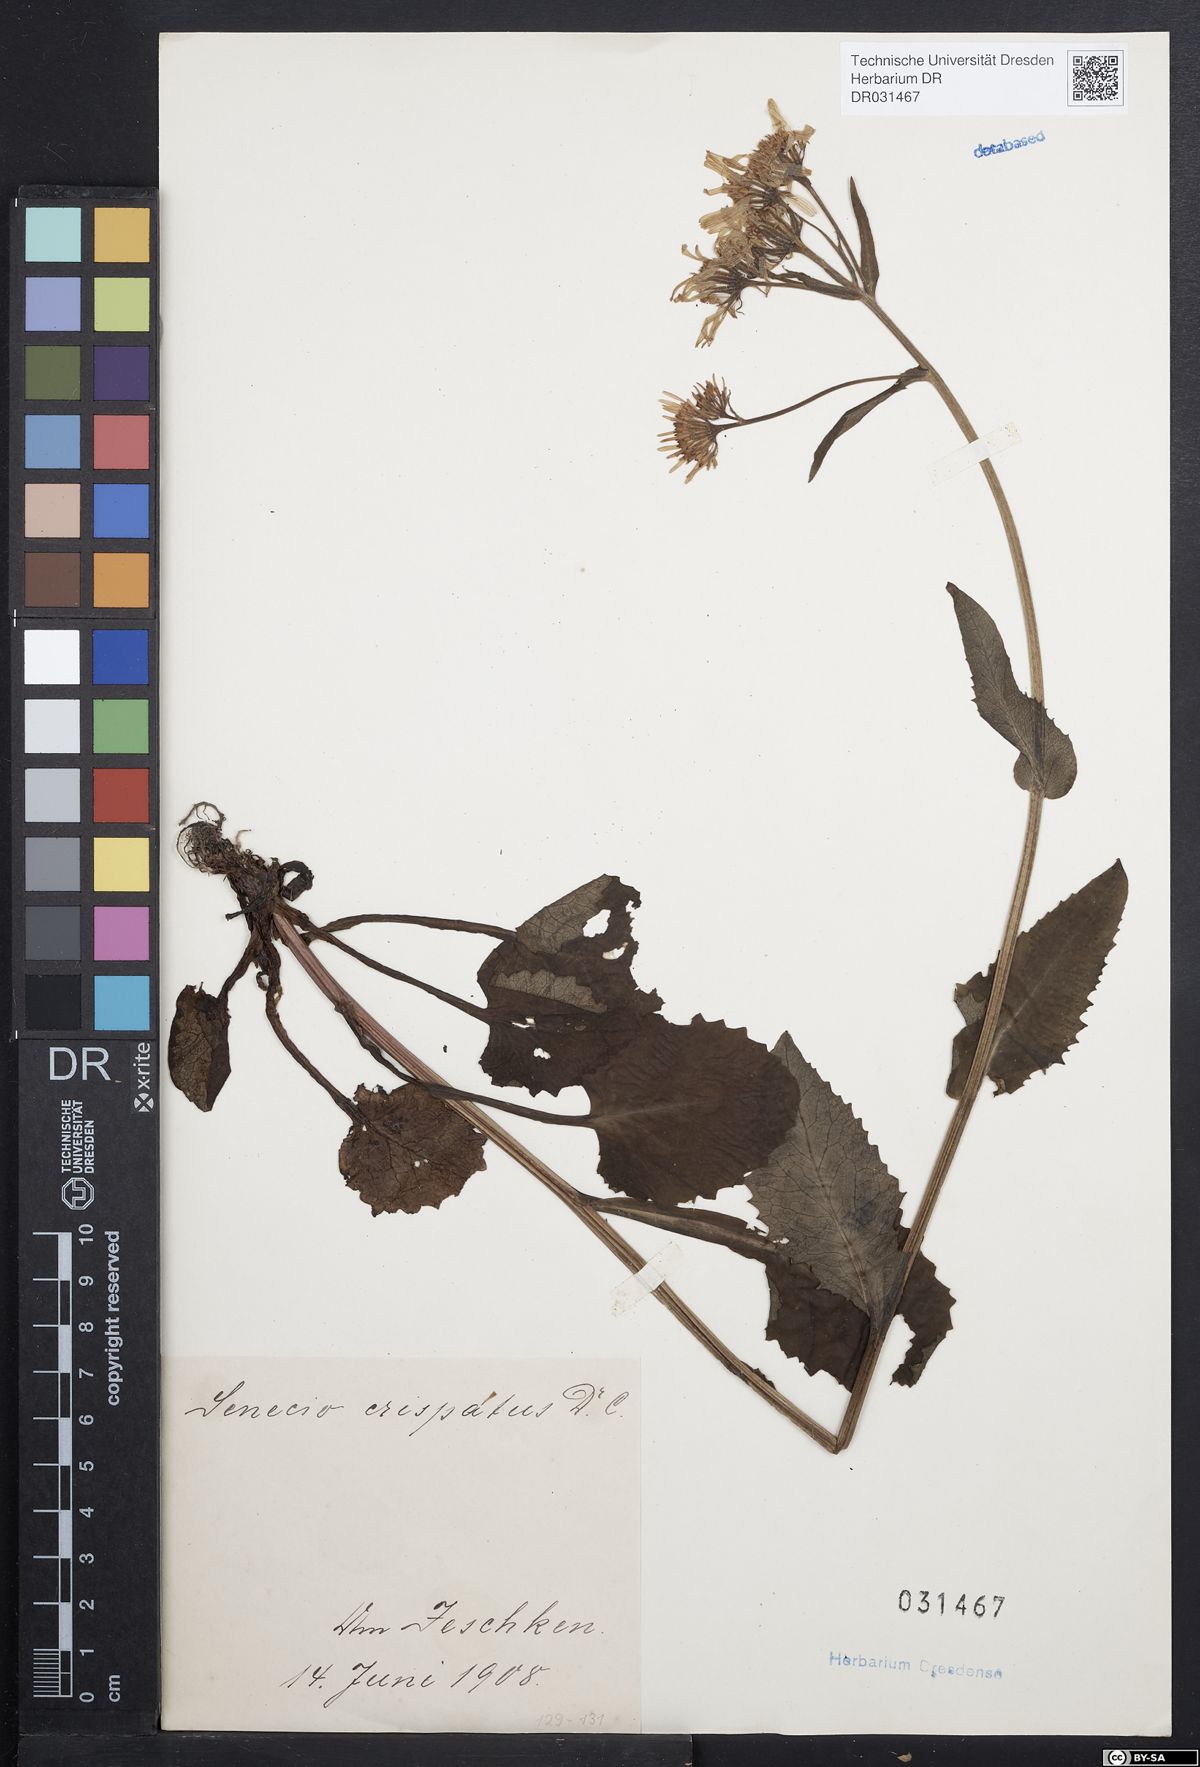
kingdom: Plantae
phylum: Tracheophyta
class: Magnoliopsida
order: Asterales
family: Asteraceae
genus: Tephroseris
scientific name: Tephroseris crispa
